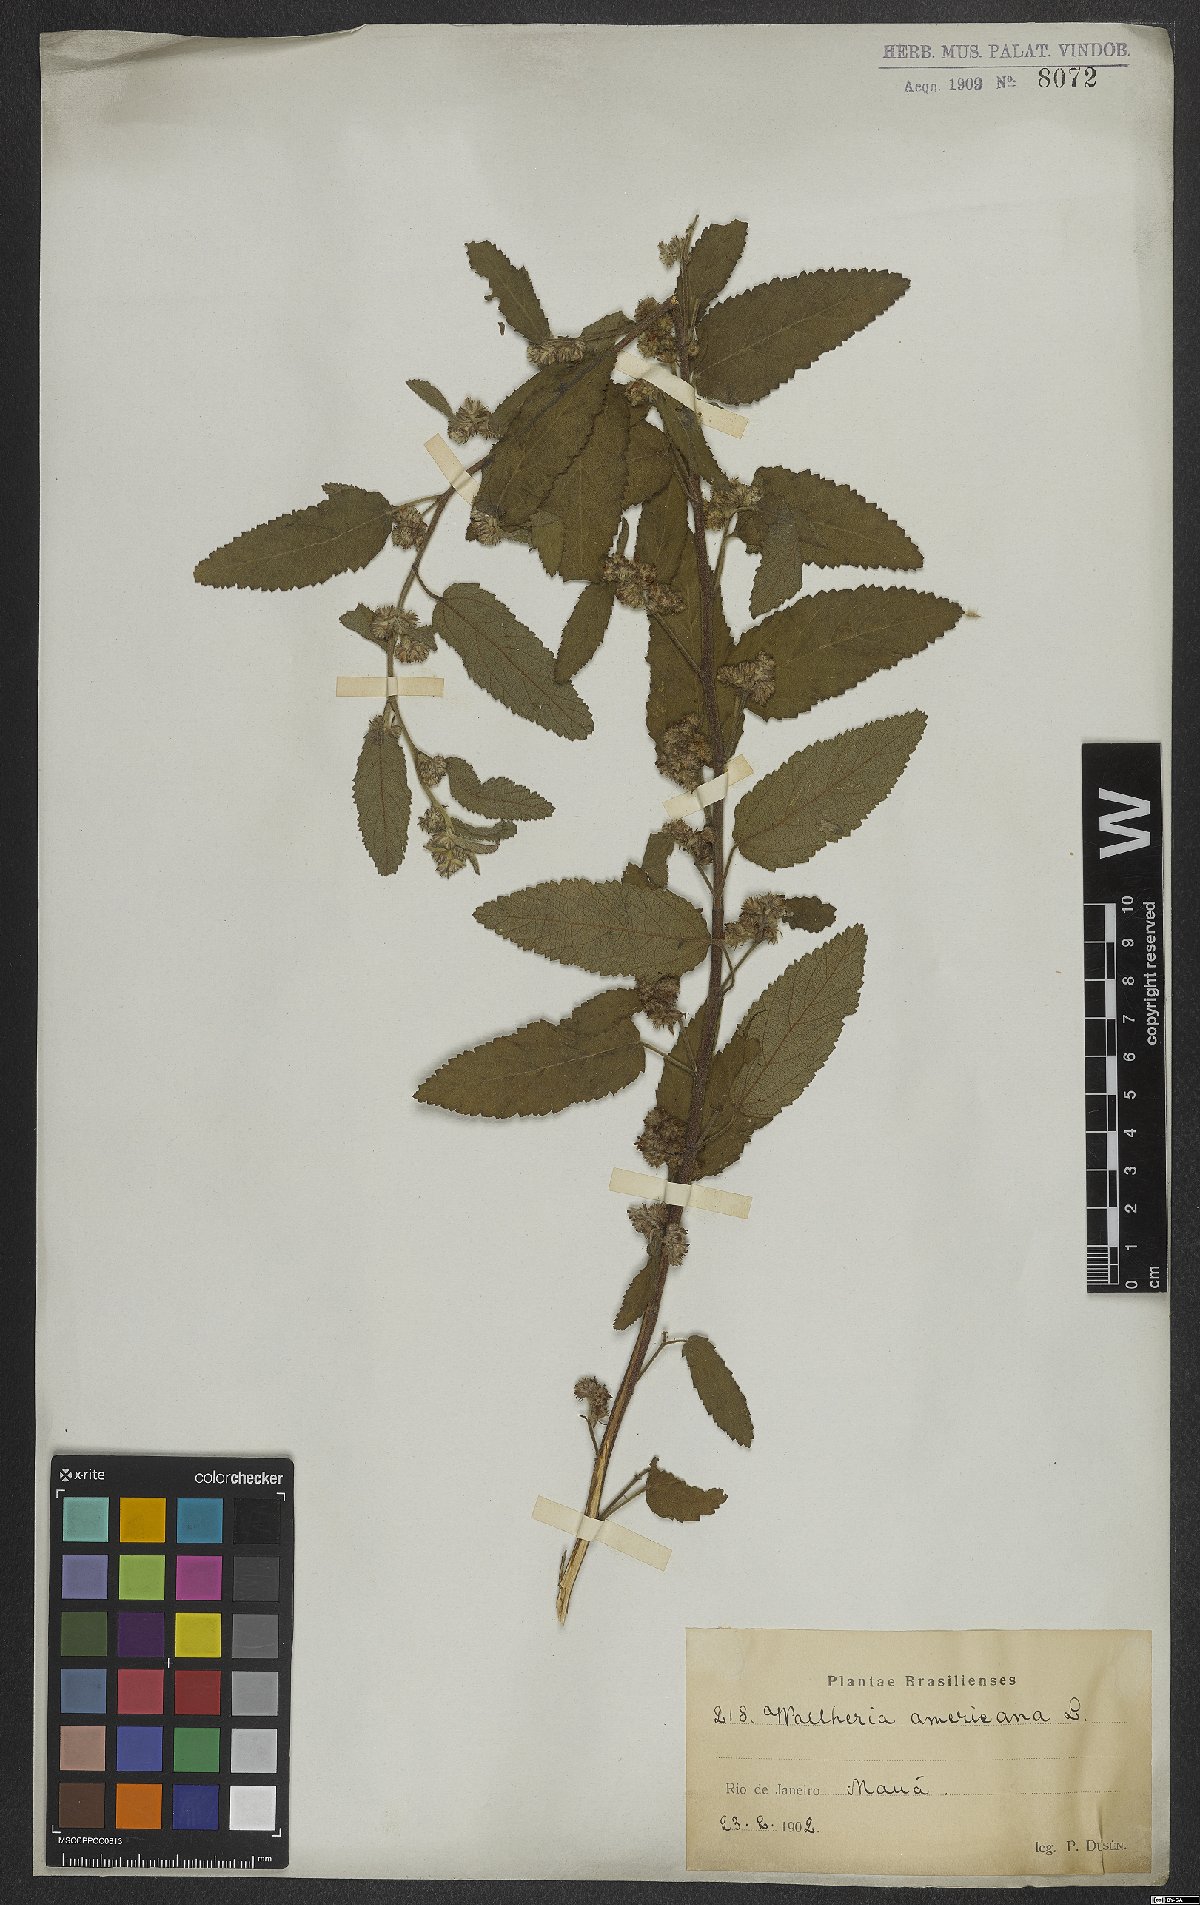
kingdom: Plantae
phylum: Tracheophyta
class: Magnoliopsida
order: Malvales
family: Malvaceae
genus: Waltheria
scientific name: Waltheria indica
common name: Leather-coat
